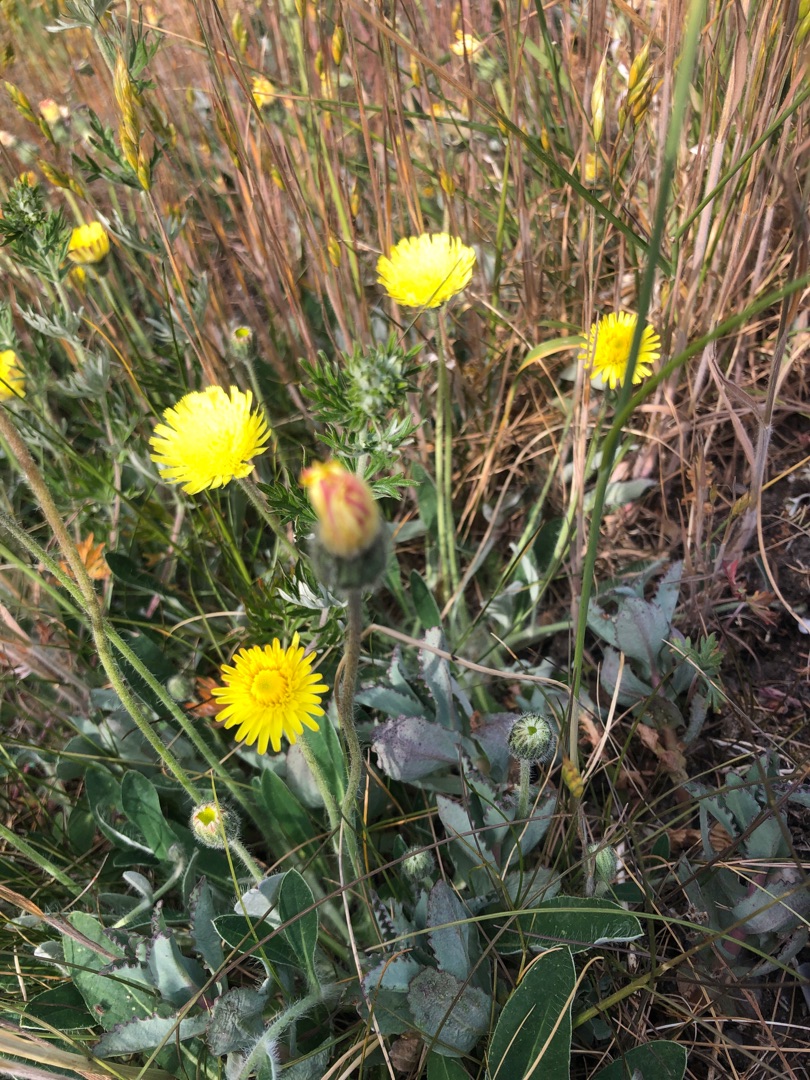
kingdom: Plantae
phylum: Tracheophyta
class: Magnoliopsida
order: Asterales
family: Asteraceae
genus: Pilosella
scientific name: Pilosella officinarum
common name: Håret høgeurt
